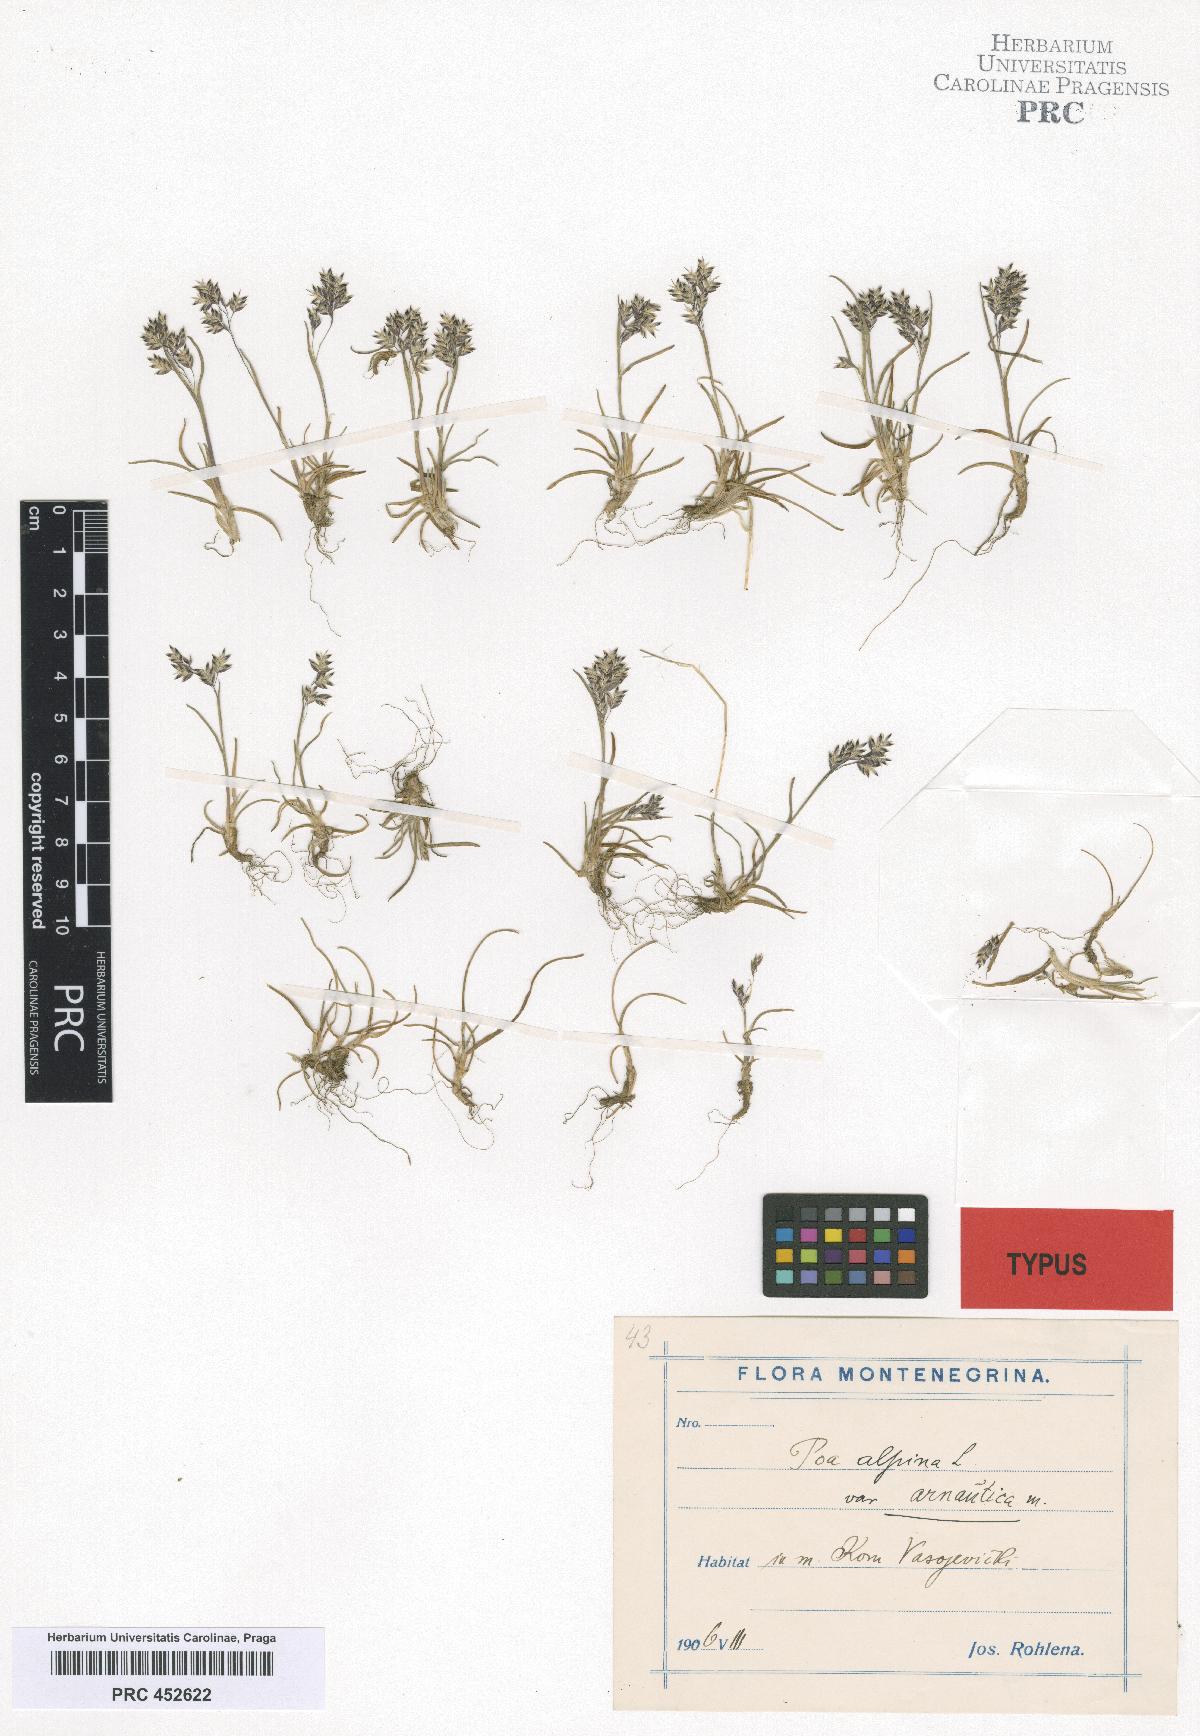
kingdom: Plantae
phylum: Tracheophyta
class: Liliopsida
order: Poales
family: Poaceae
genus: Poa
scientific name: Poa alpina
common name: Alpine bluegrass
